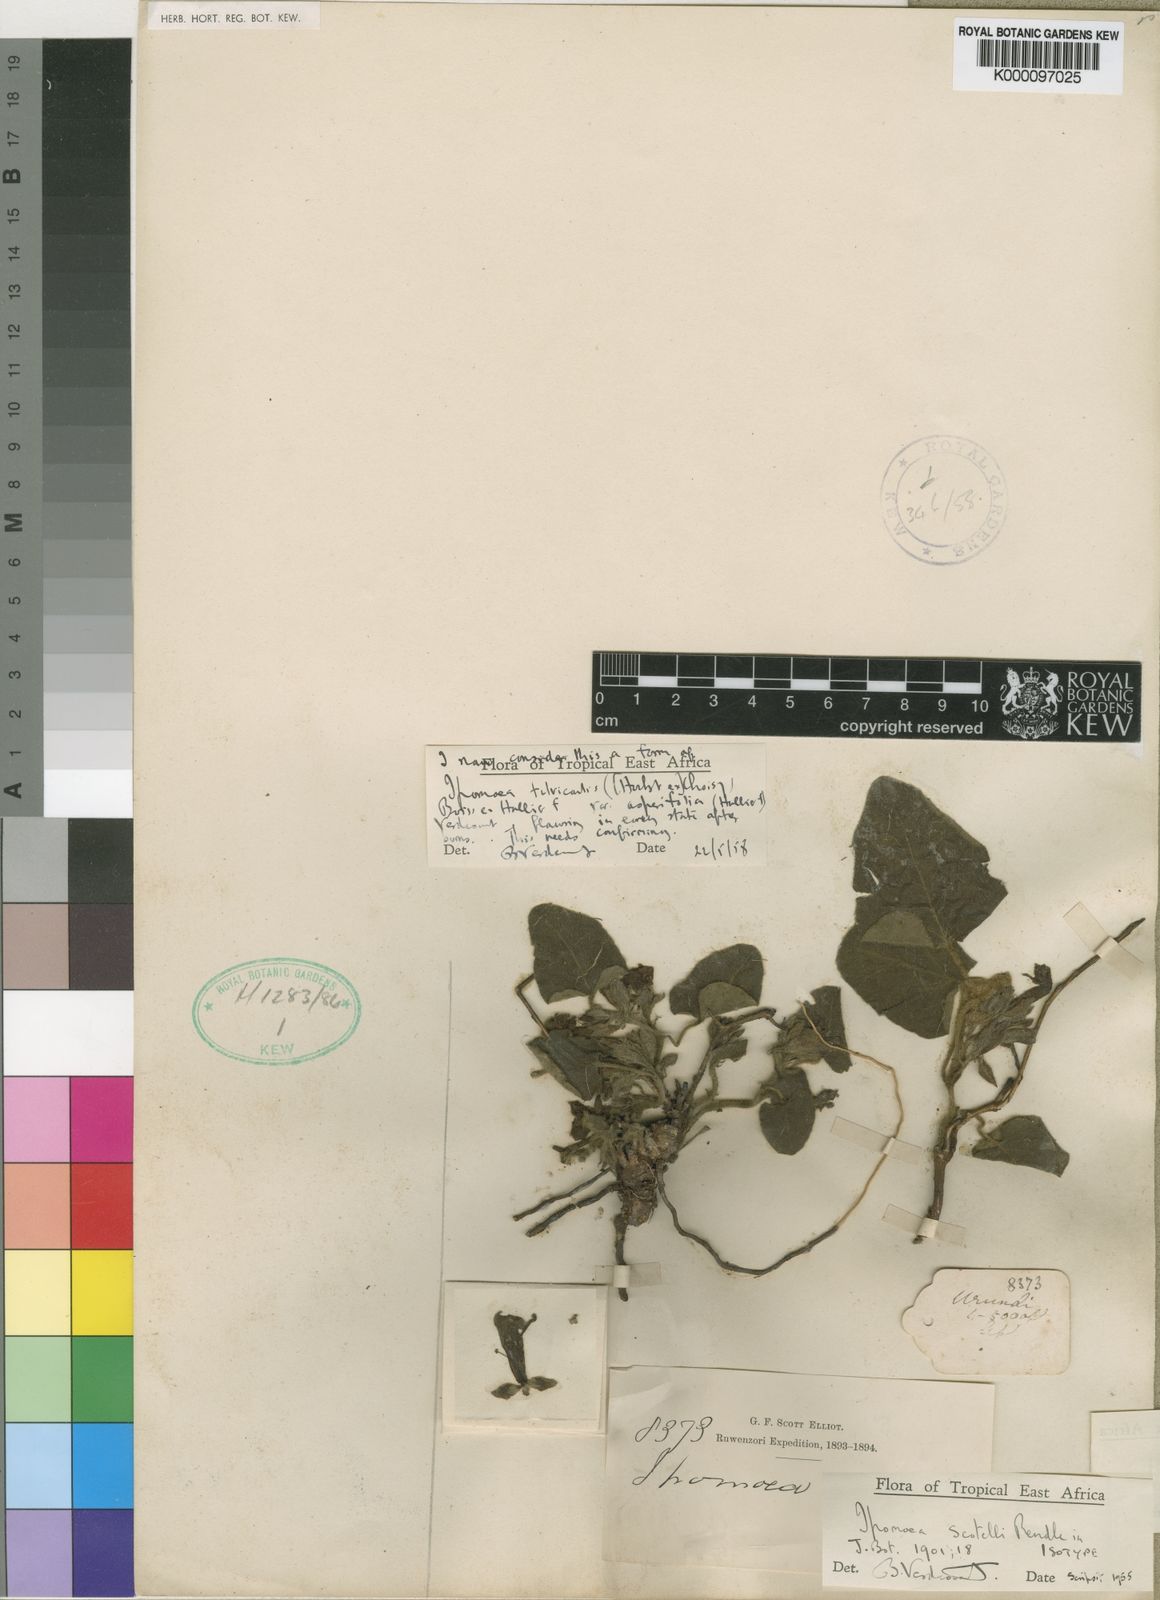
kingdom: Plantae
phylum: Tracheophyta
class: Magnoliopsida
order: Solanales
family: Convolvulaceae
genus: Ipomoea
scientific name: Ipomoea fulvicaulis
